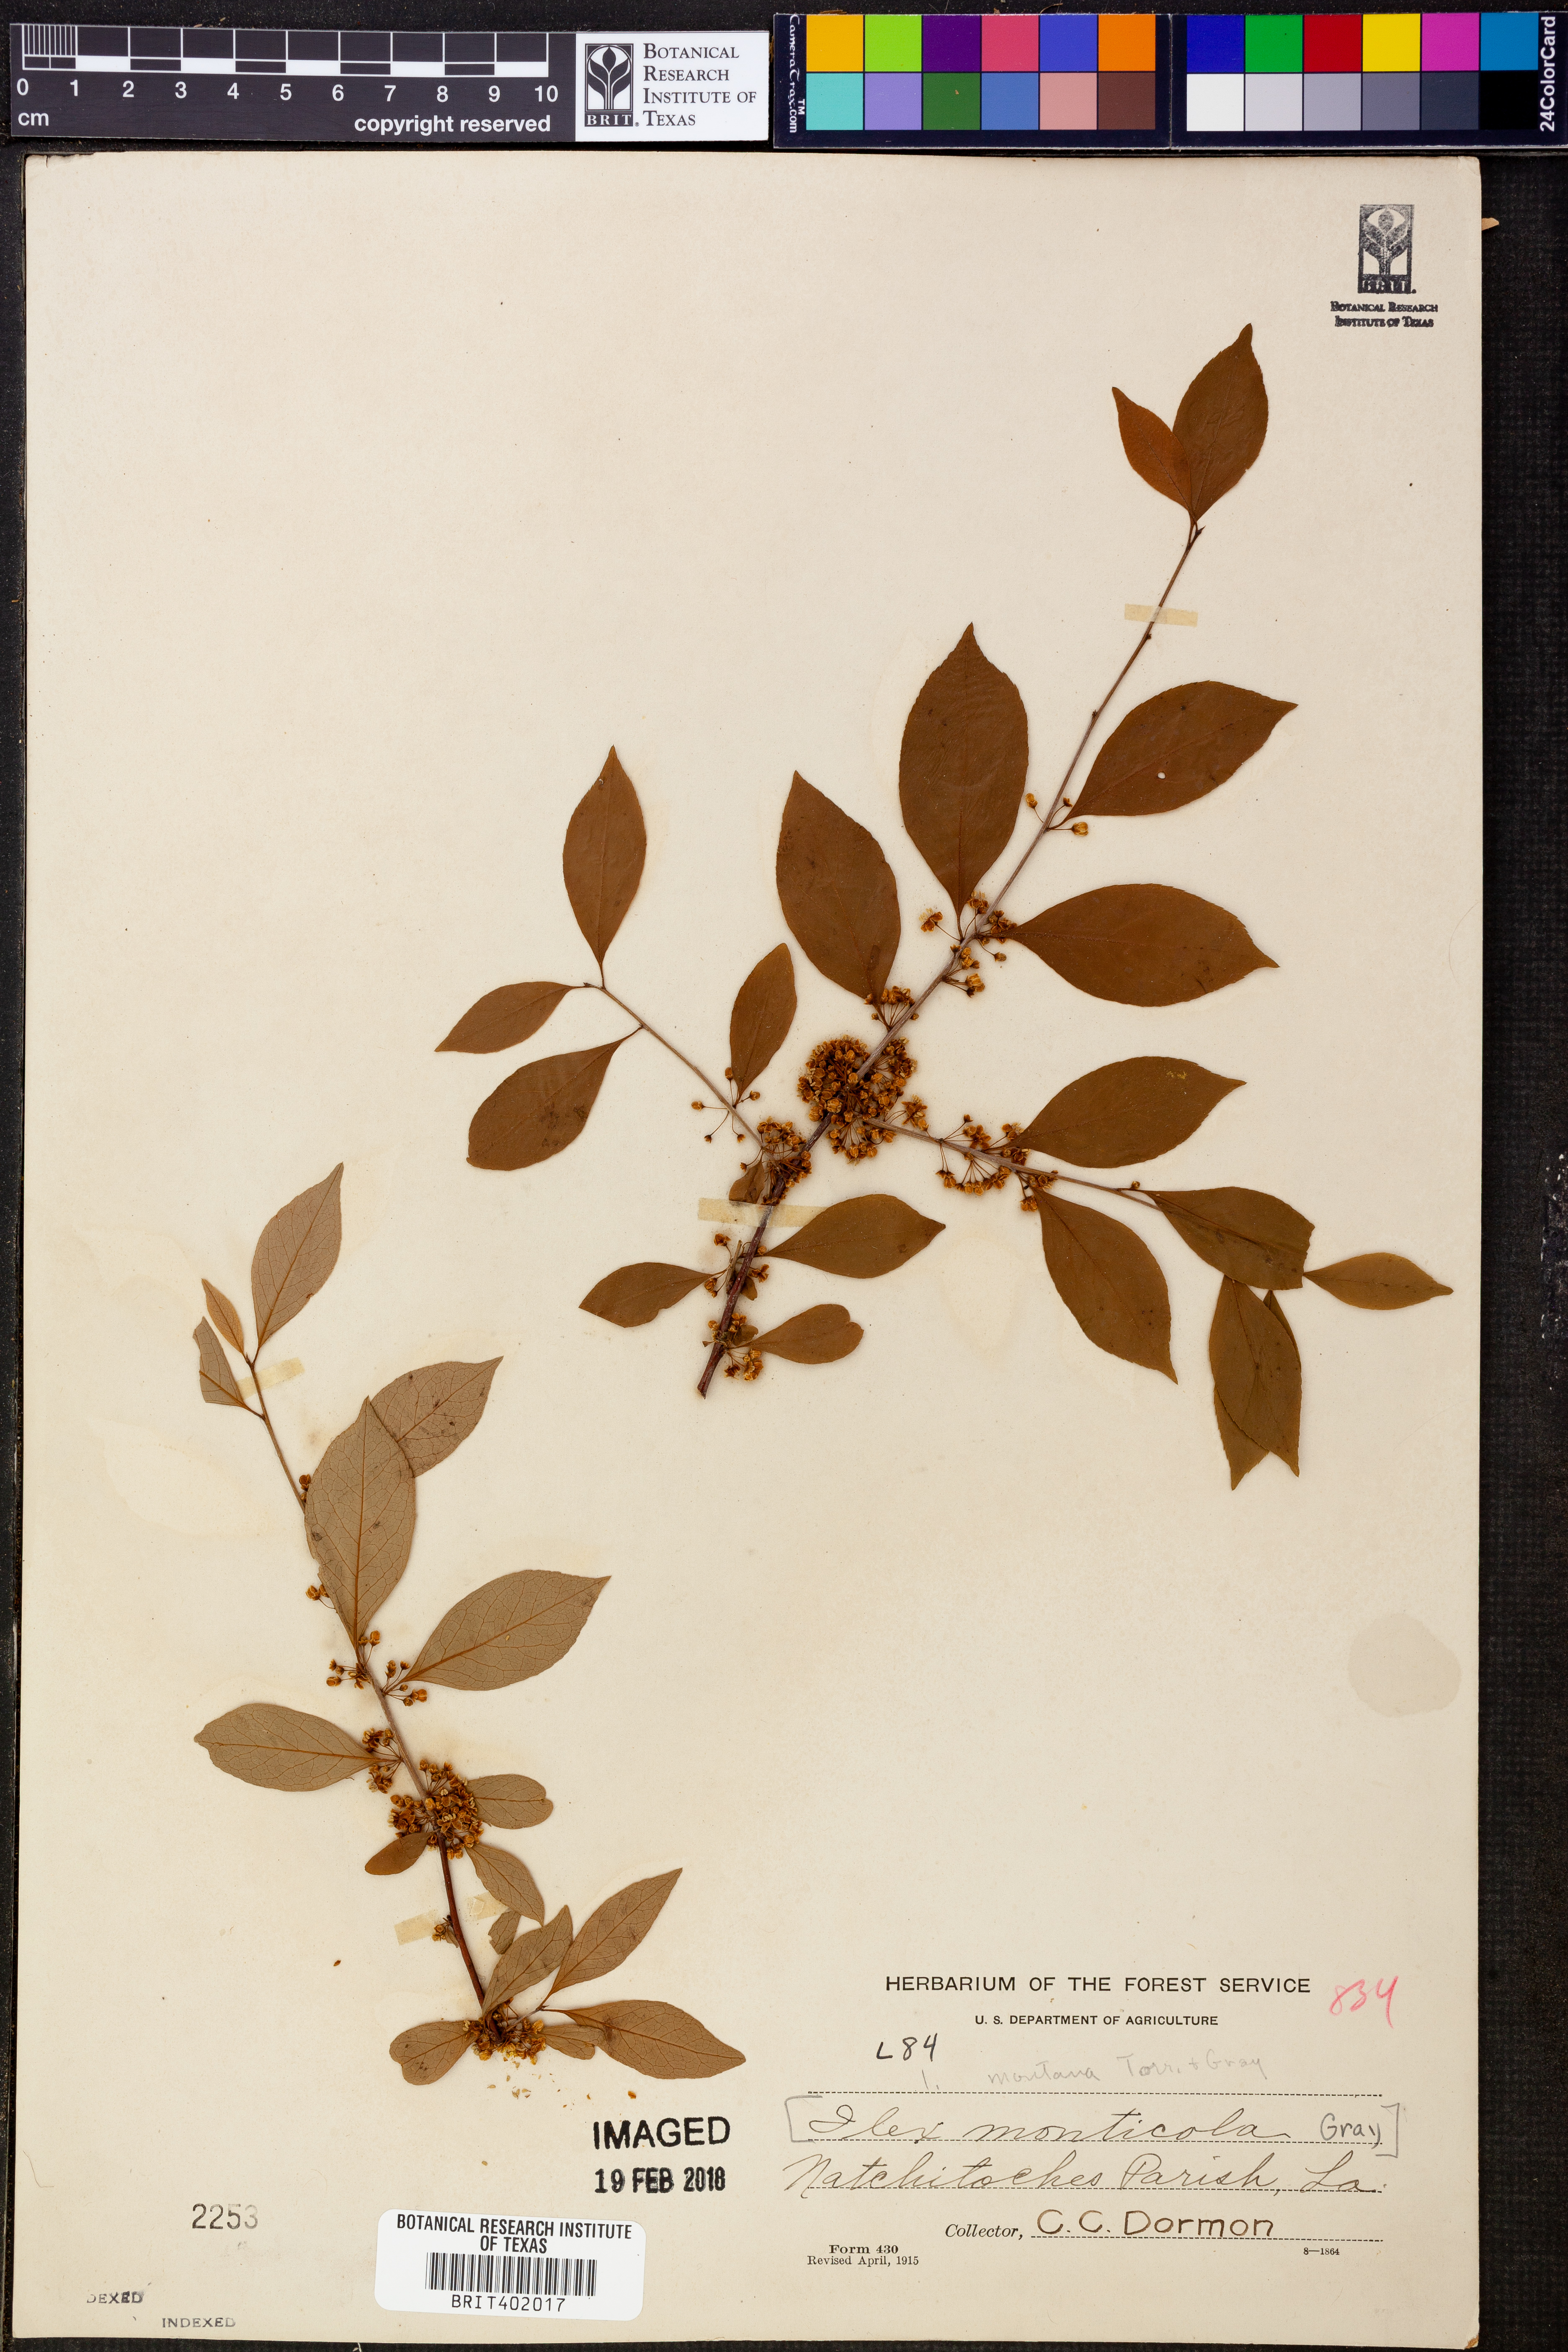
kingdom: Plantae
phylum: Tracheophyta
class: Magnoliopsida
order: Aquifoliales
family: Aquifoliaceae
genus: Ilex
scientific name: Ilex montana
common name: Mountain winterberry
